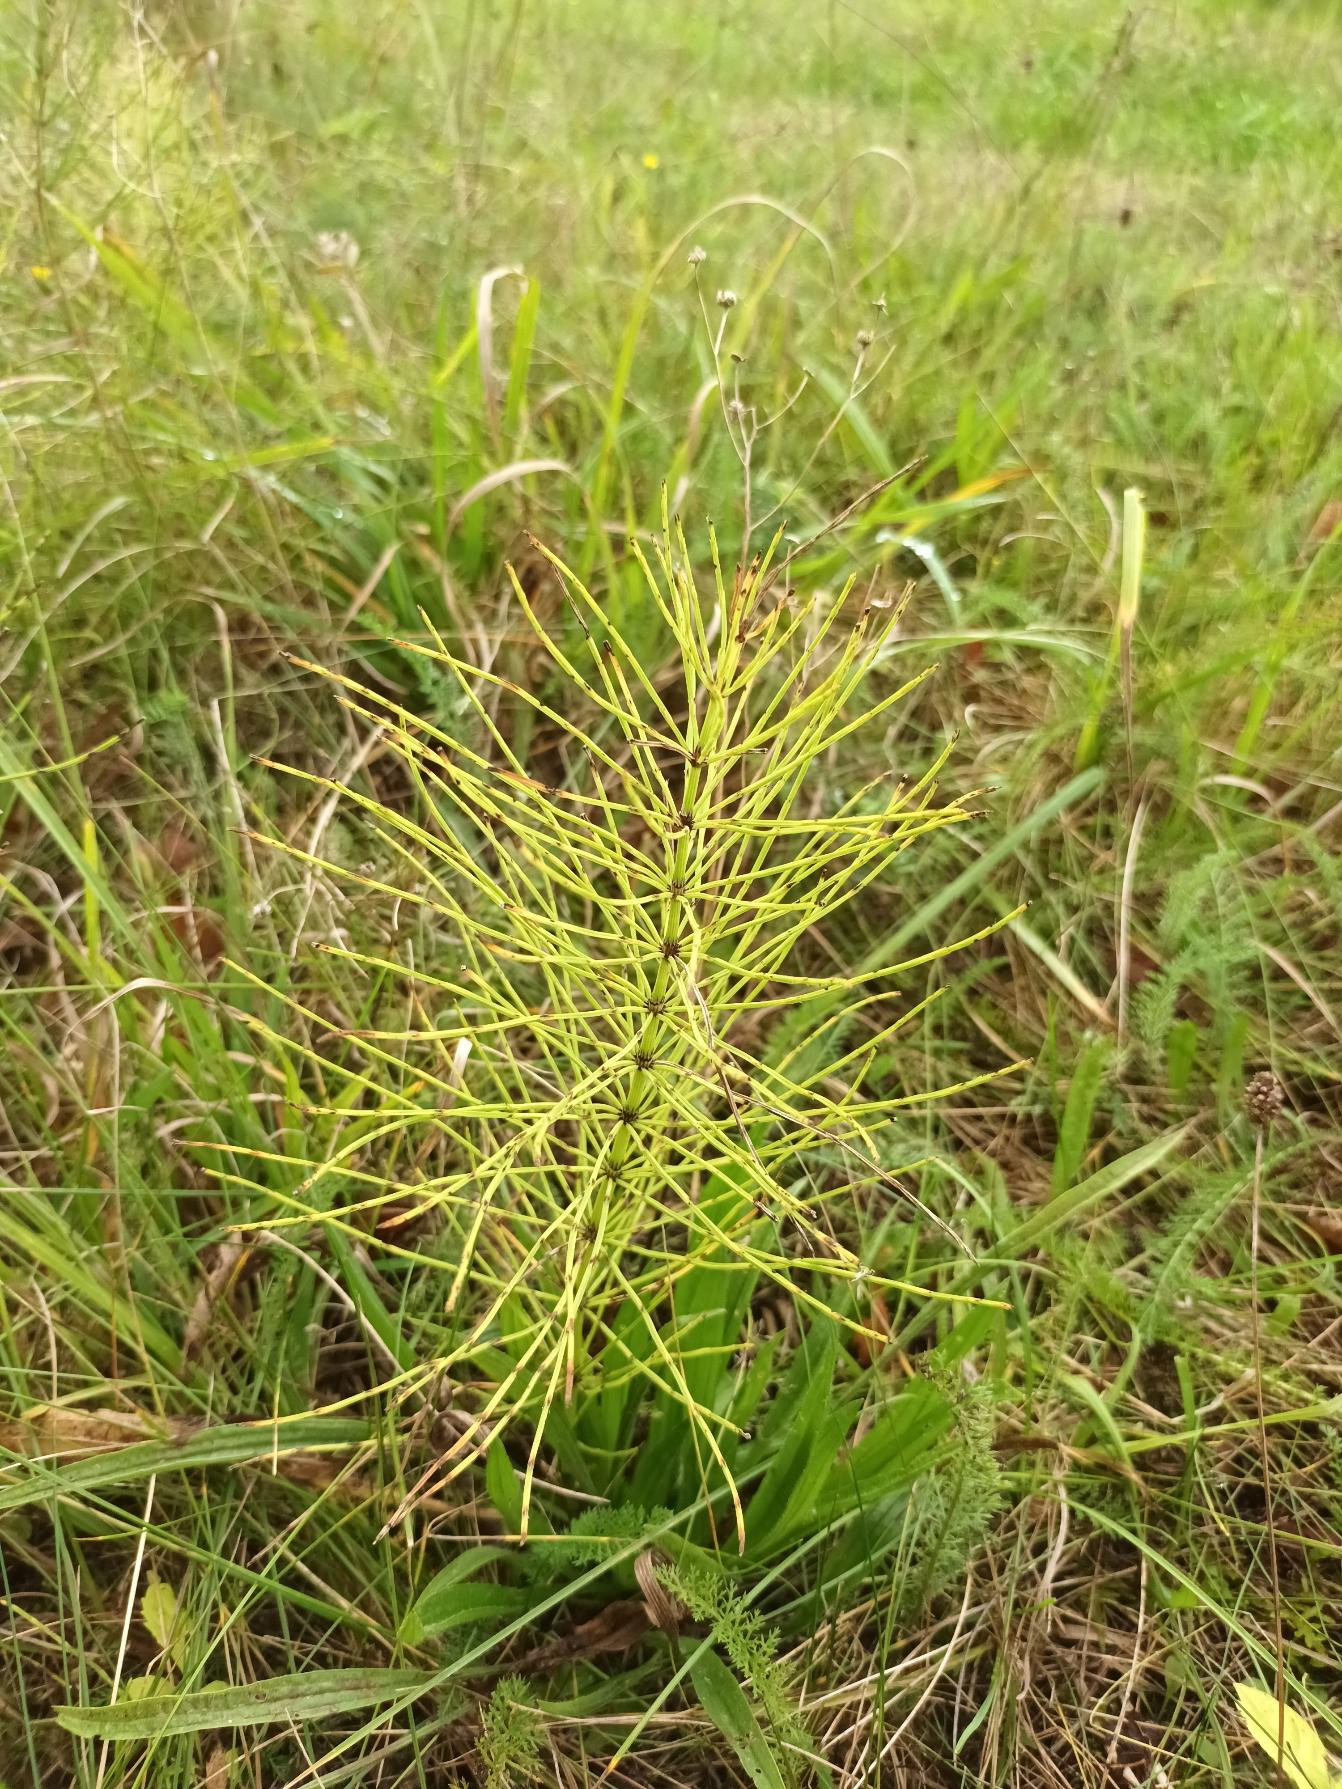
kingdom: Plantae
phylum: Tracheophyta
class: Polypodiopsida
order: Equisetales
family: Equisetaceae
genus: Equisetum
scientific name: Equisetum arvense
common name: Ager-padderok
